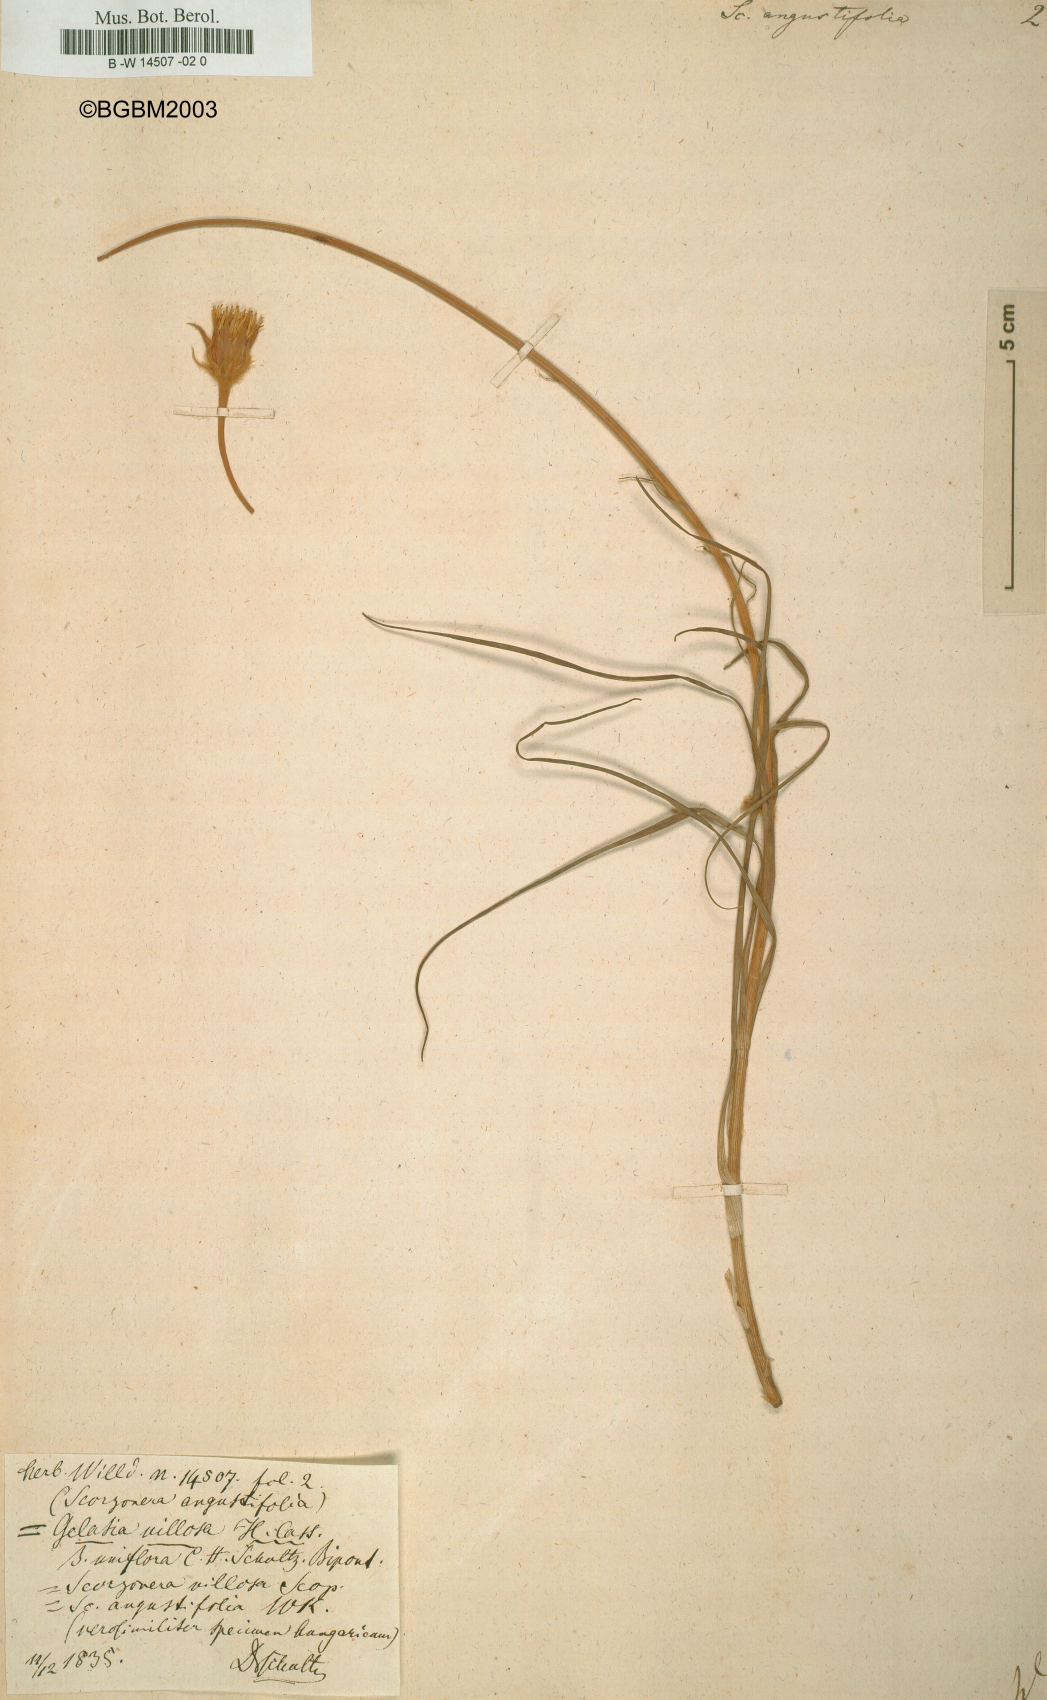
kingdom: Plantae
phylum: Tracheophyta
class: Magnoliopsida
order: Asterales
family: Asteraceae
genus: Scorzonera
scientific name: Scorzonera angustifolia
